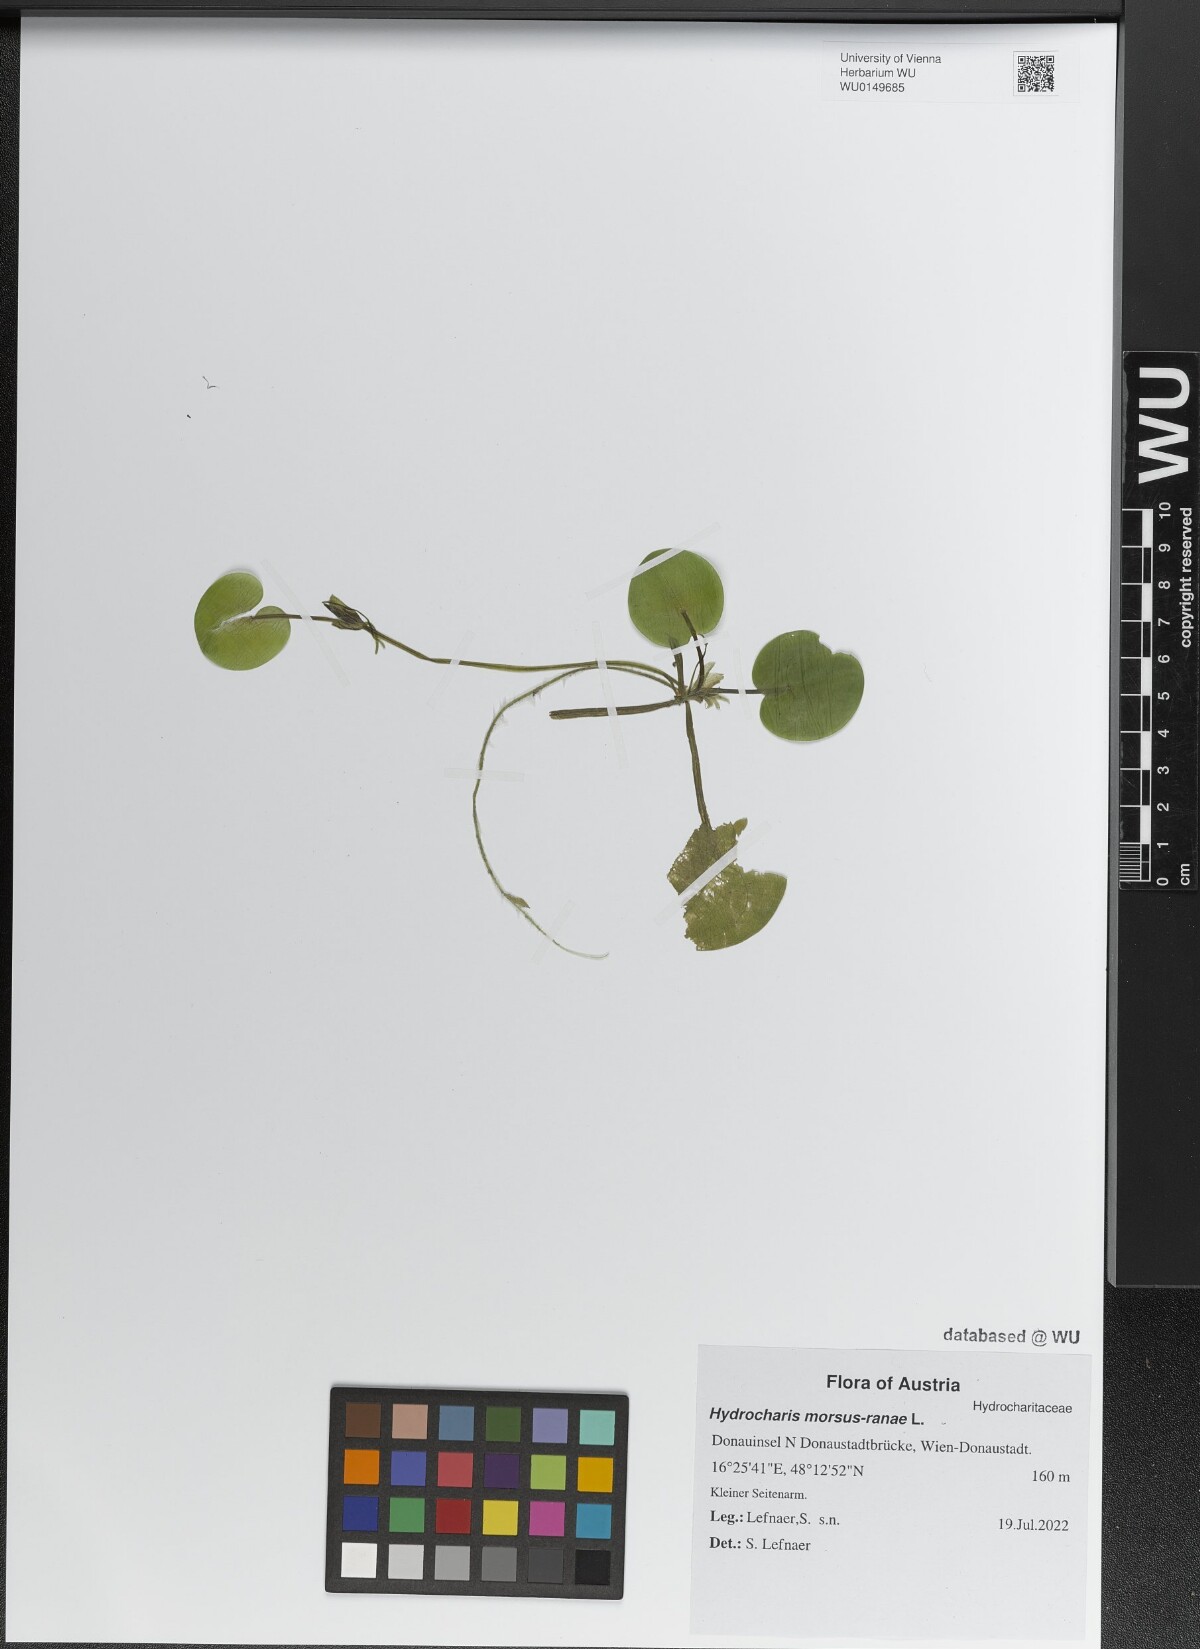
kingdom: Plantae
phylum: Tracheophyta
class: Liliopsida
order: Alismatales
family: Hydrocharitaceae
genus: Hydrocharis
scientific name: Hydrocharis morsus-ranae
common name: Frogbit
